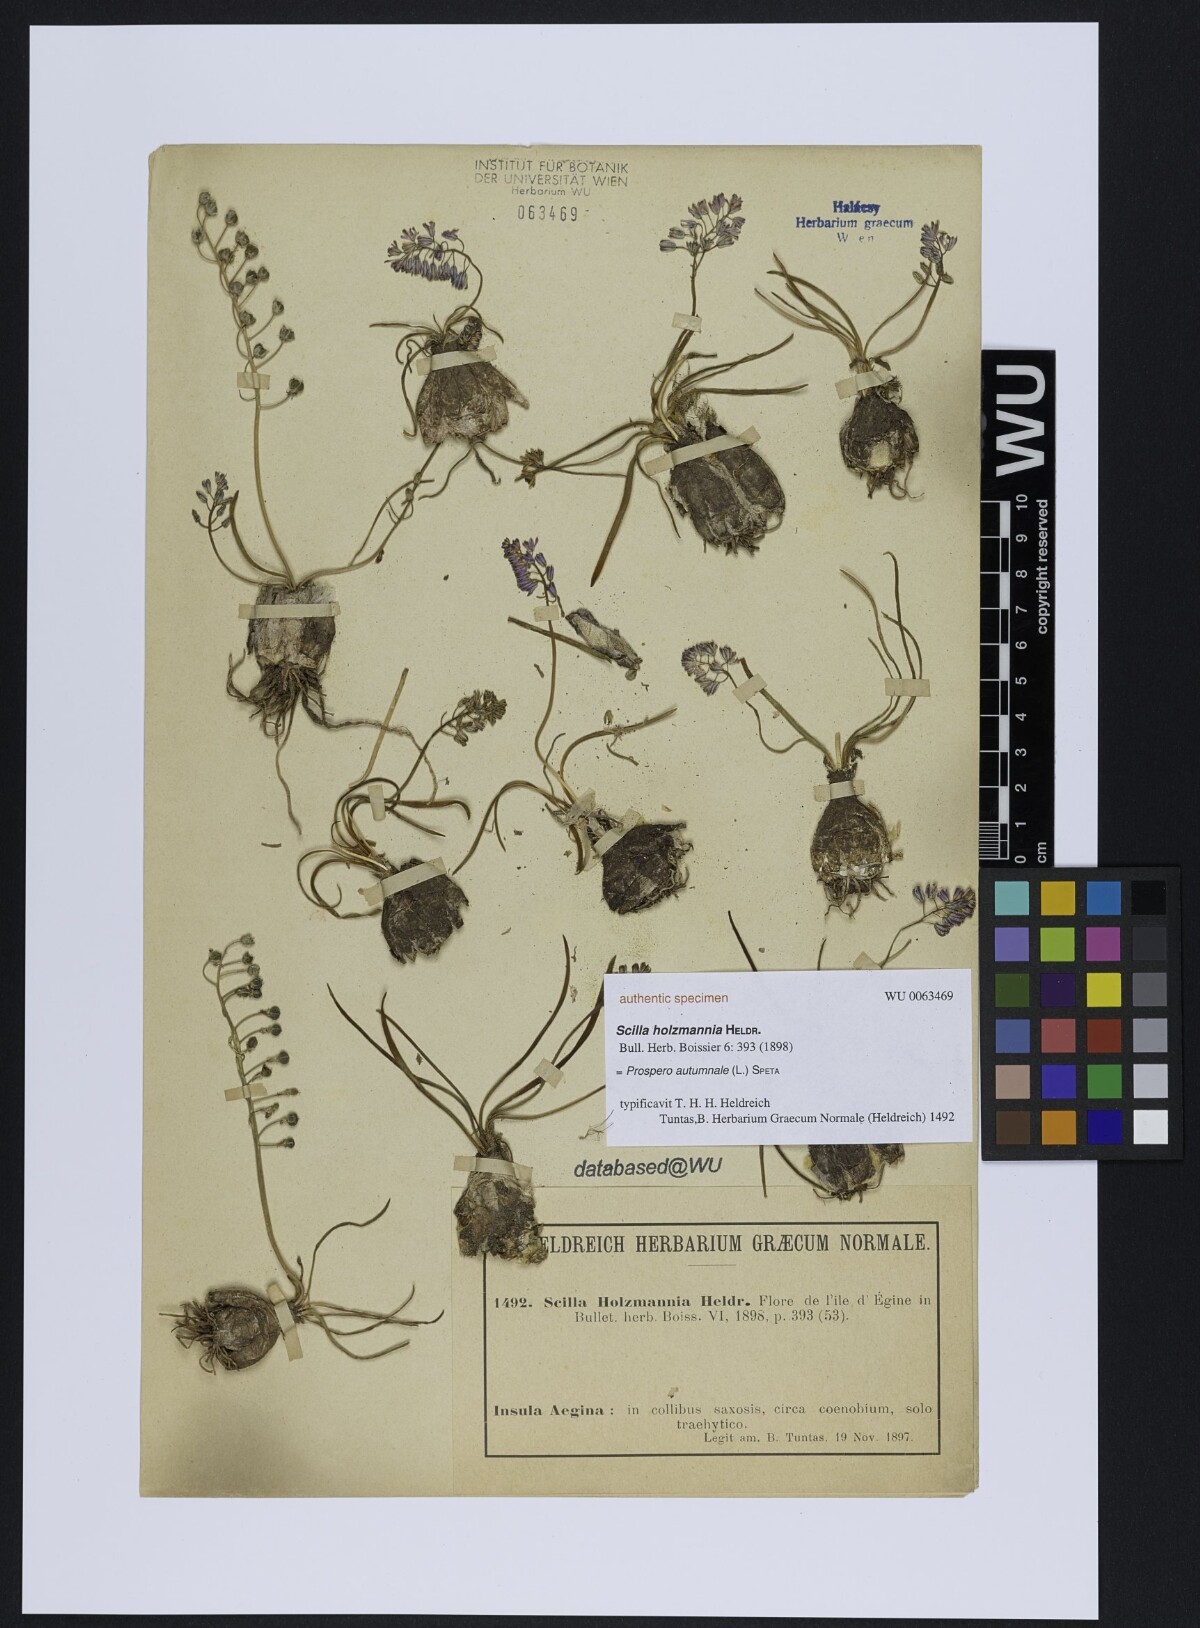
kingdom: Plantae
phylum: Tracheophyta
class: Liliopsida
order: Asparagales
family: Asparagaceae
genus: Prospero
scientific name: Prospero autumnale
